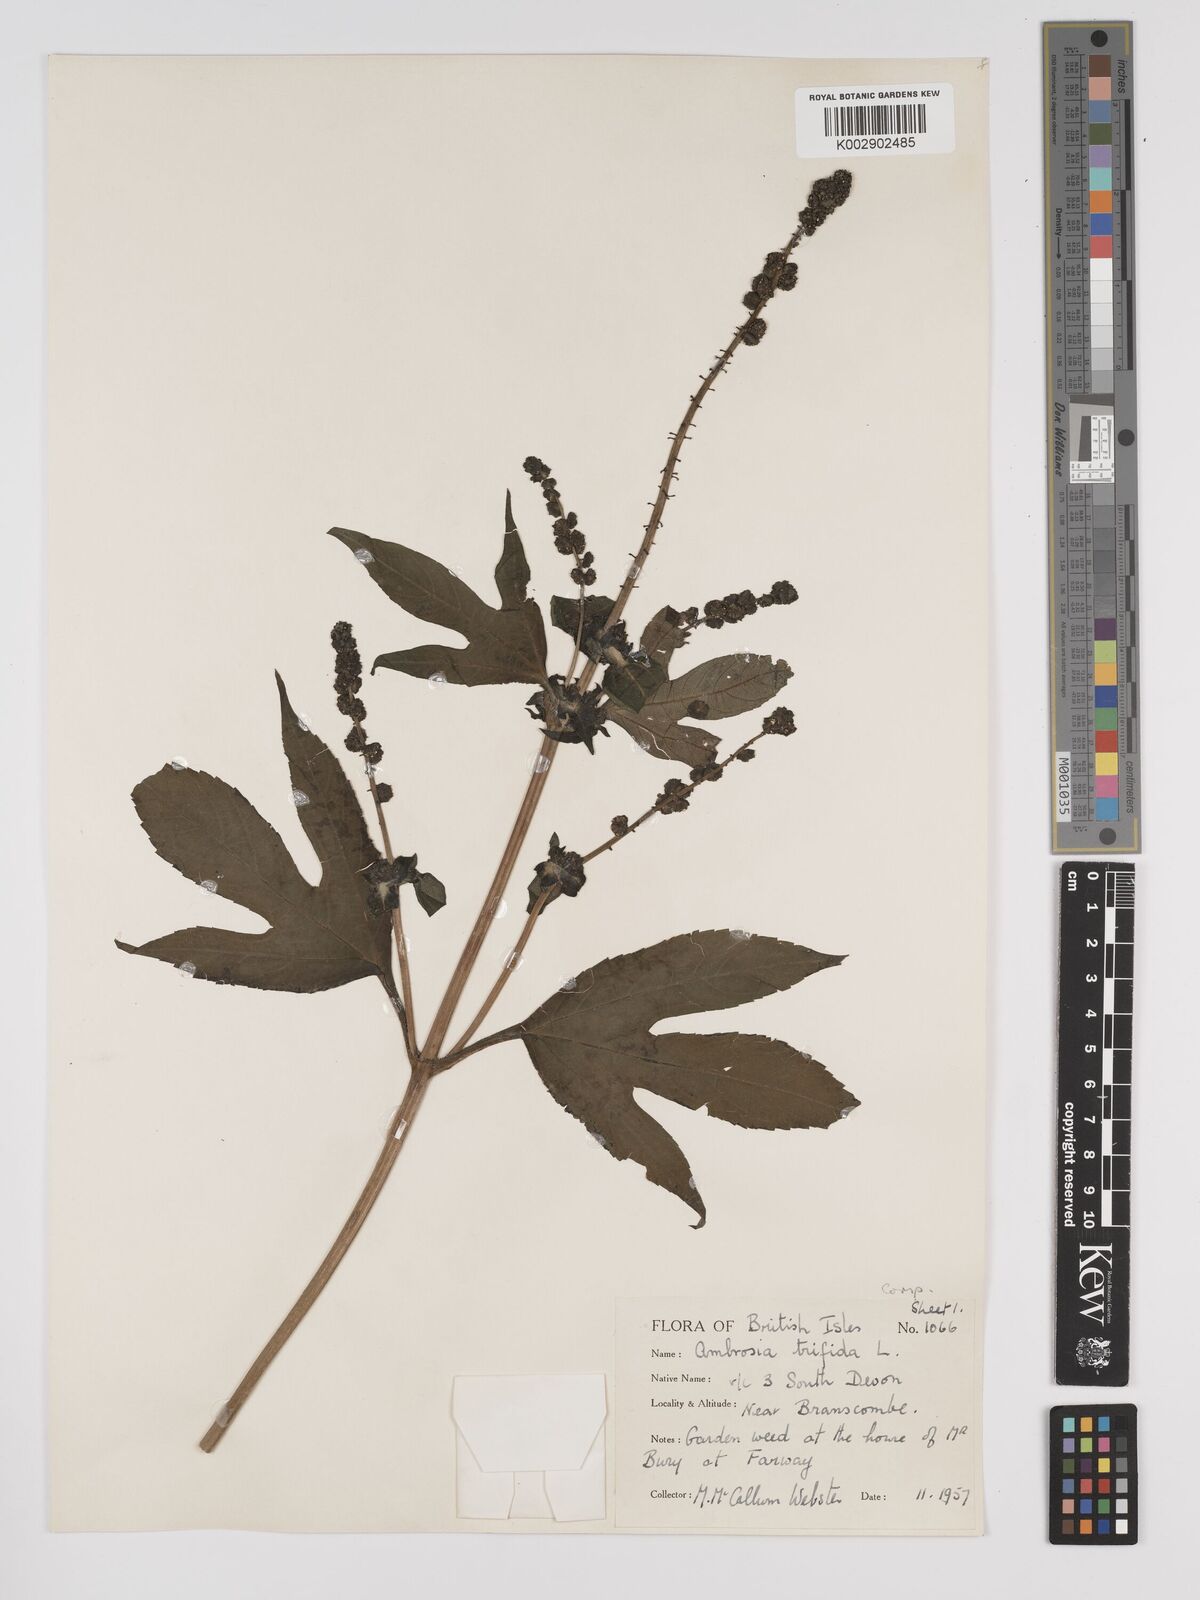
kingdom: Plantae
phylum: Tracheophyta
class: Magnoliopsida
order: Asterales
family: Asteraceae
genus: Ambrosia
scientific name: Ambrosia trifida
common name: Giant ragweed
